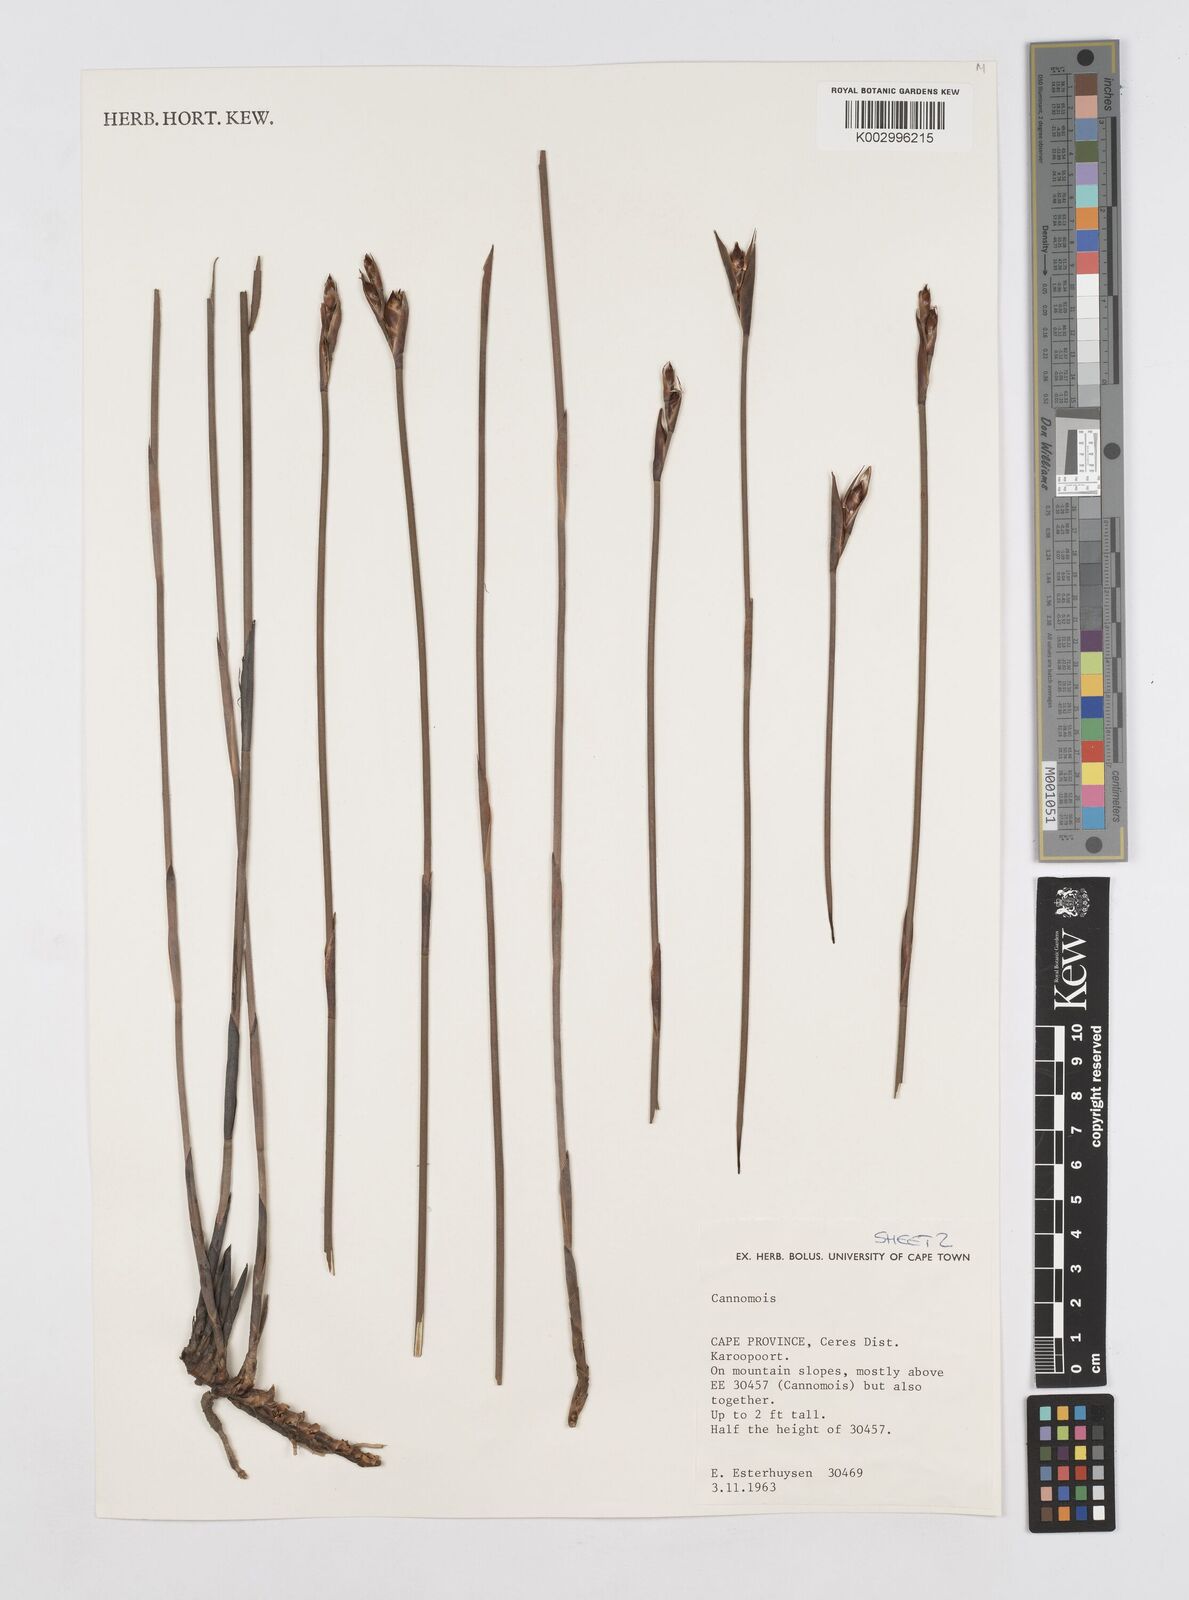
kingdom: Plantae
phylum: Tracheophyta
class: Liliopsida
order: Poales
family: Restionaceae
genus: Cannomois
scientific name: Cannomois taylorii
